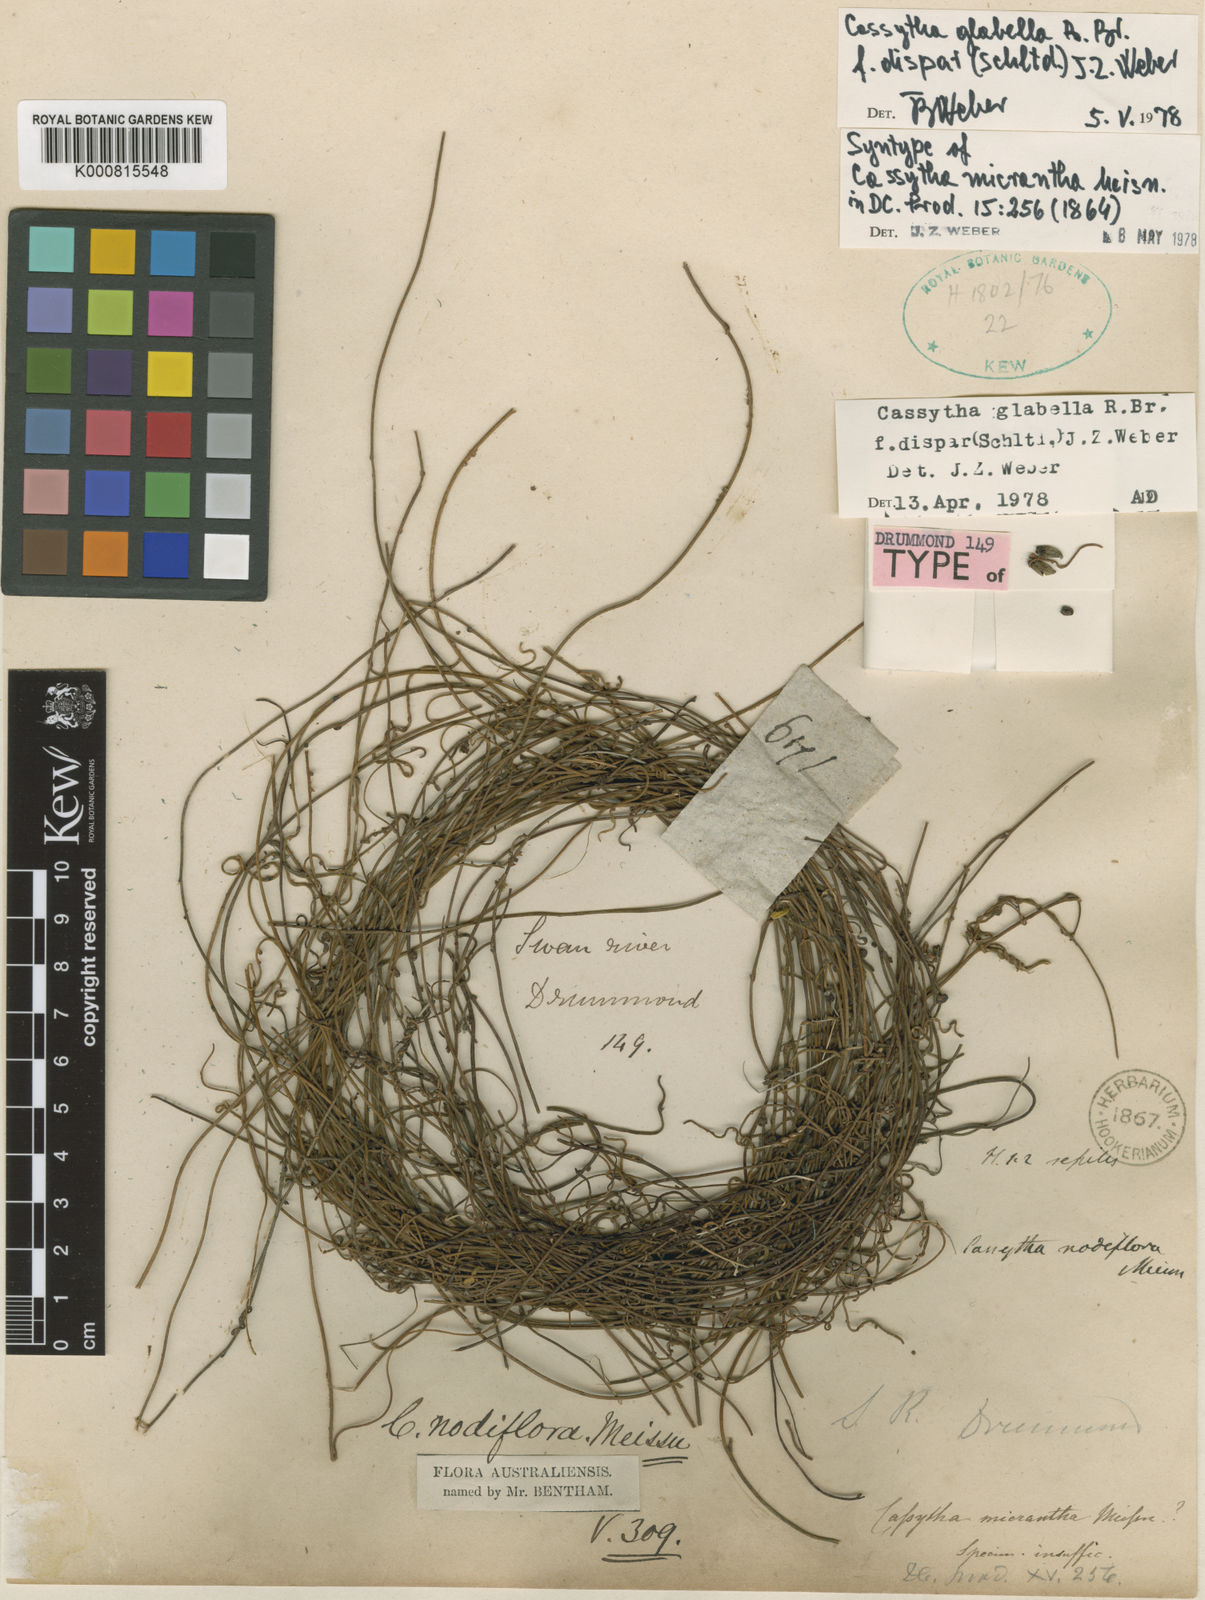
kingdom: Plantae
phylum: Tracheophyta
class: Magnoliopsida
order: Laurales
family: Lauraceae
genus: Cassytha
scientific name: Cassytha glabella
